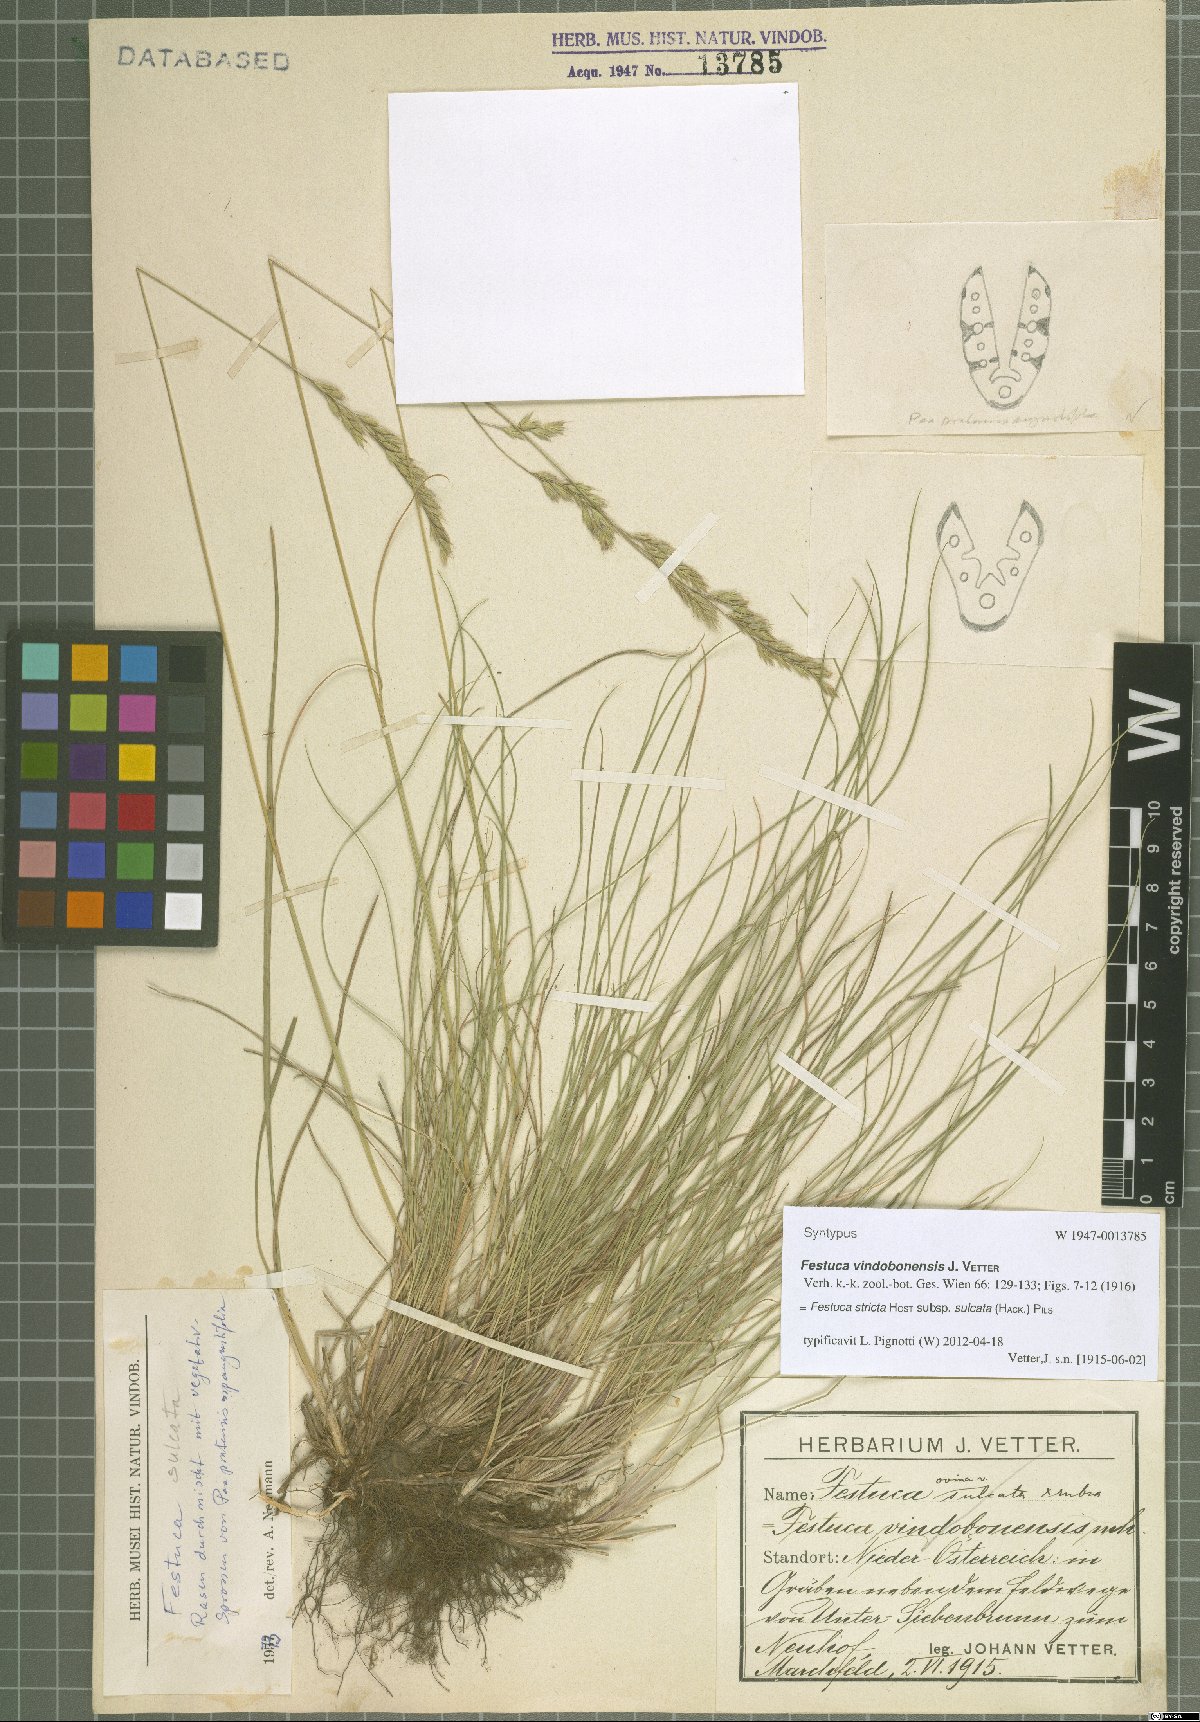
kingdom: Plantae
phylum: Tracheophyta
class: Liliopsida
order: Poales
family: Poaceae
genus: Festuca
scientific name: Festuca rupicola
